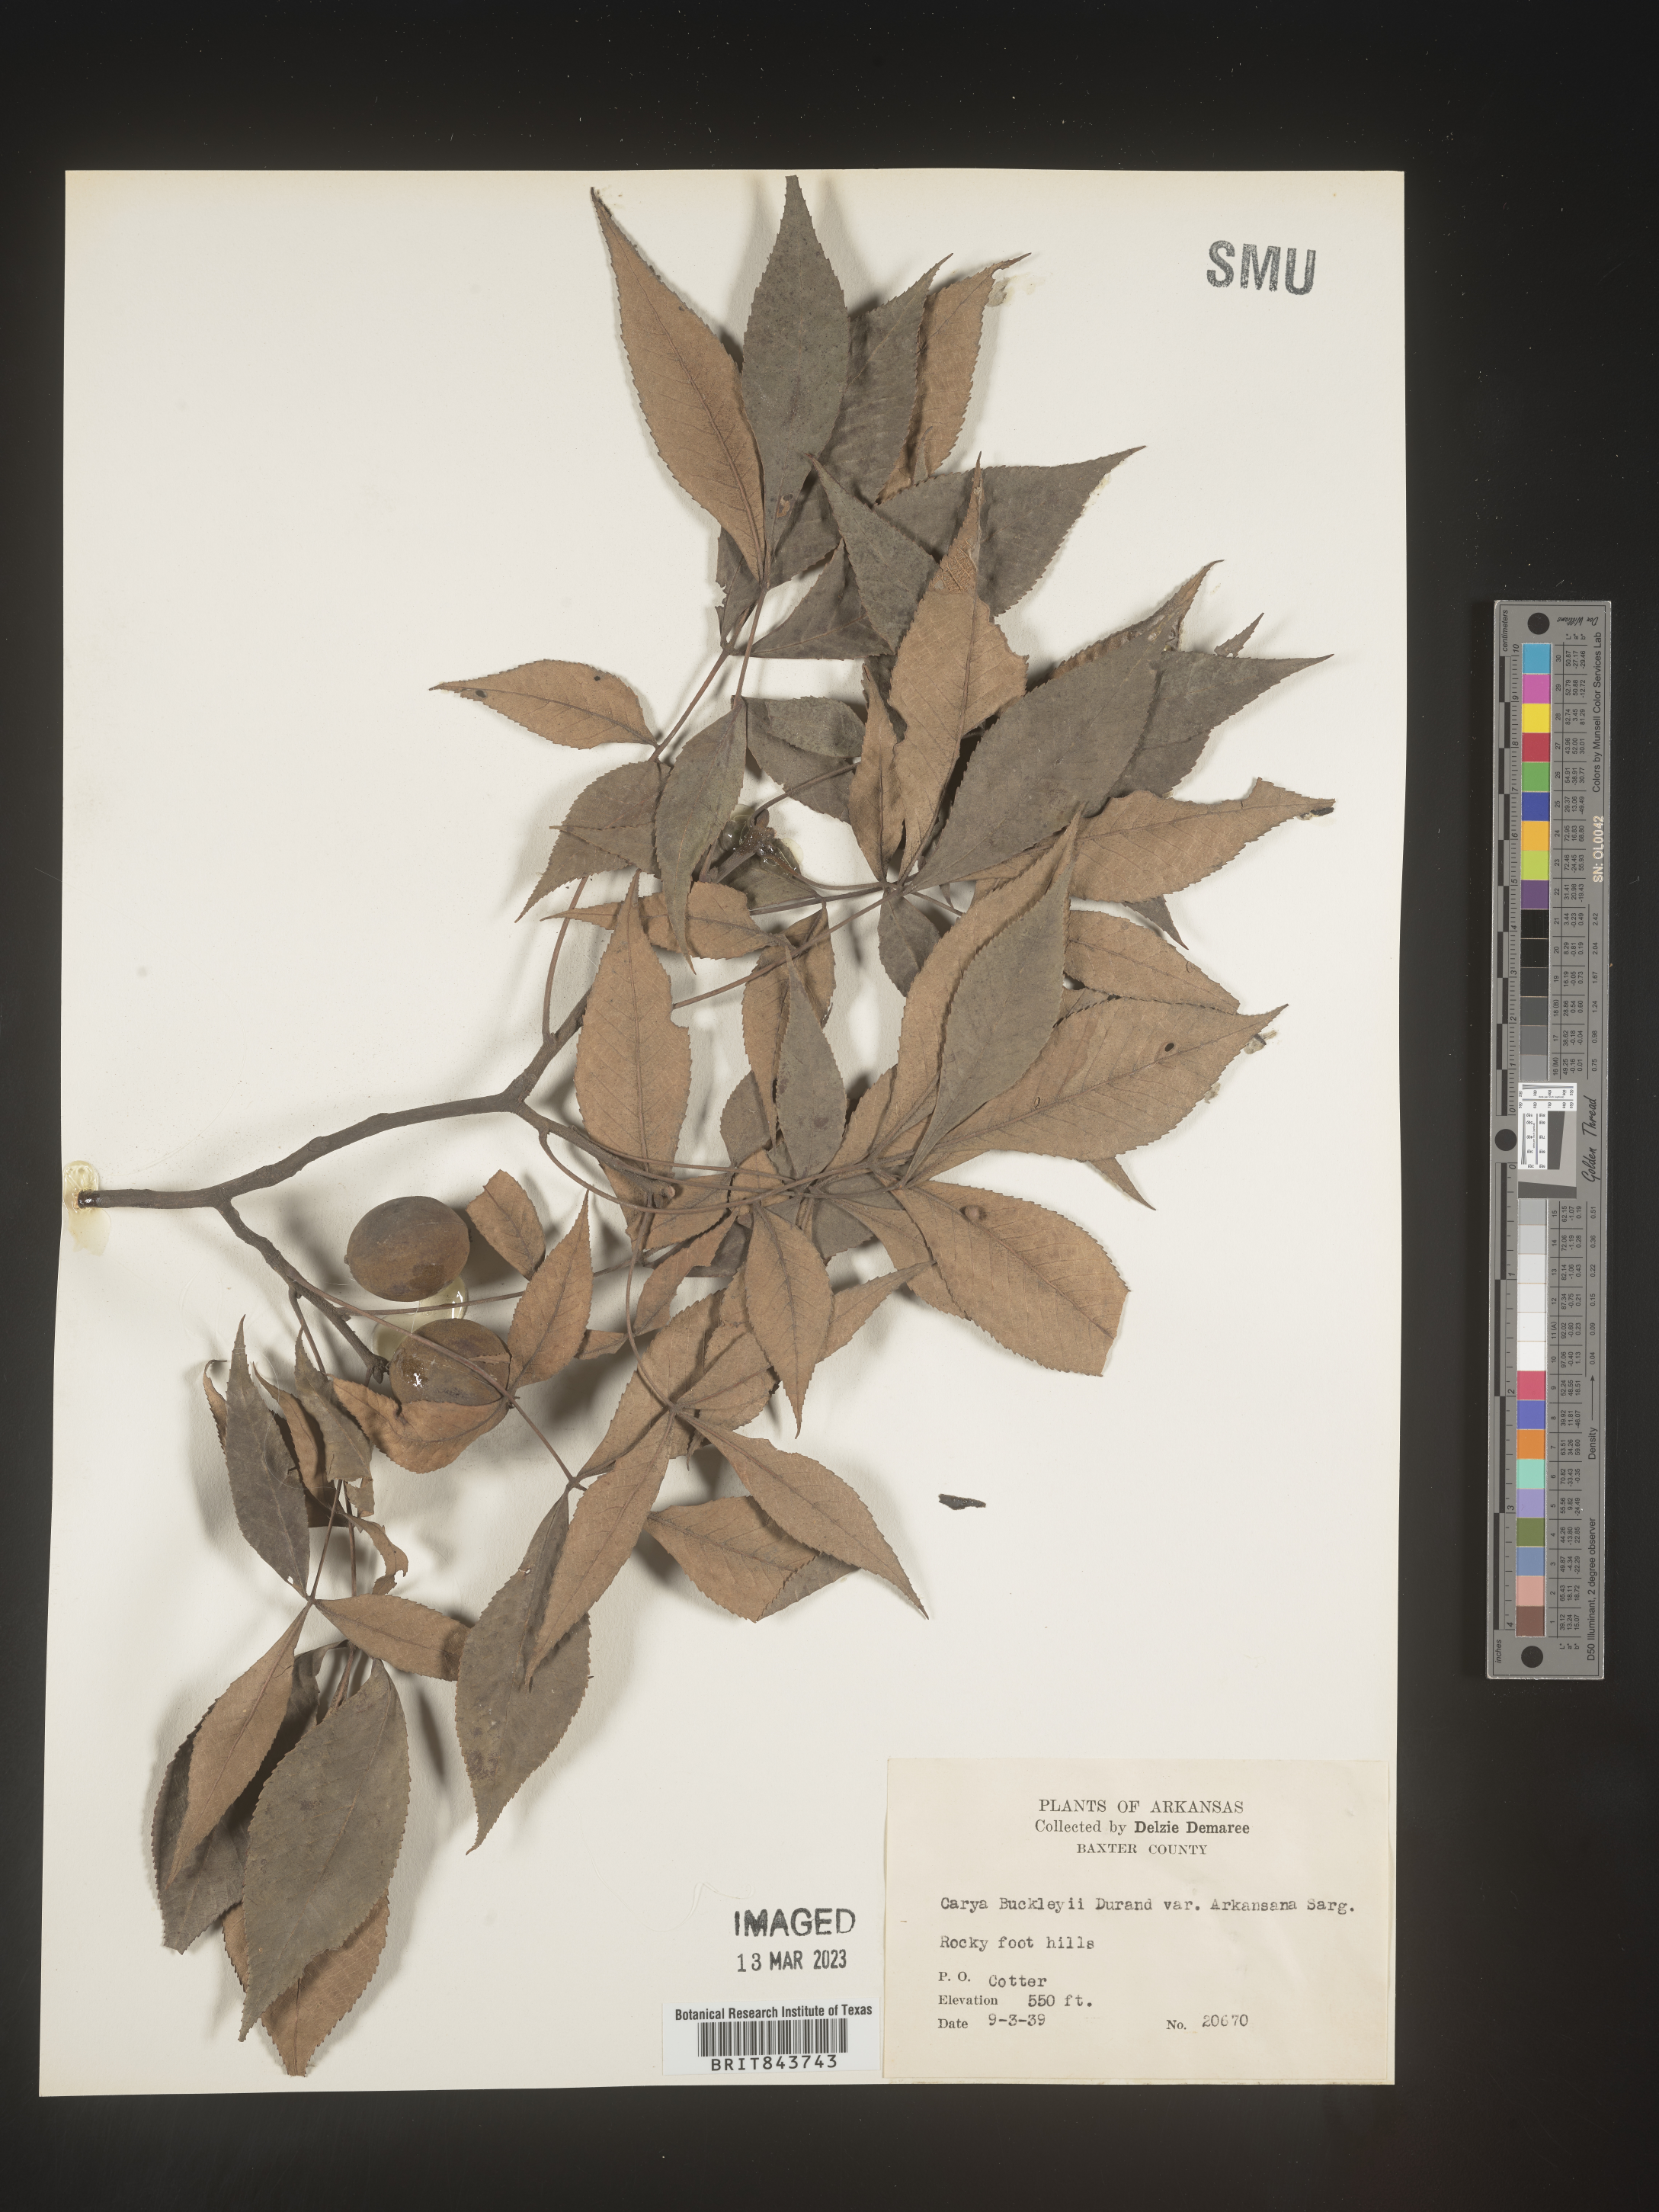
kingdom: Plantae
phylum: Tracheophyta
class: Magnoliopsida
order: Fagales
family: Juglandaceae
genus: Carya
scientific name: Carya texana
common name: Black hickory
